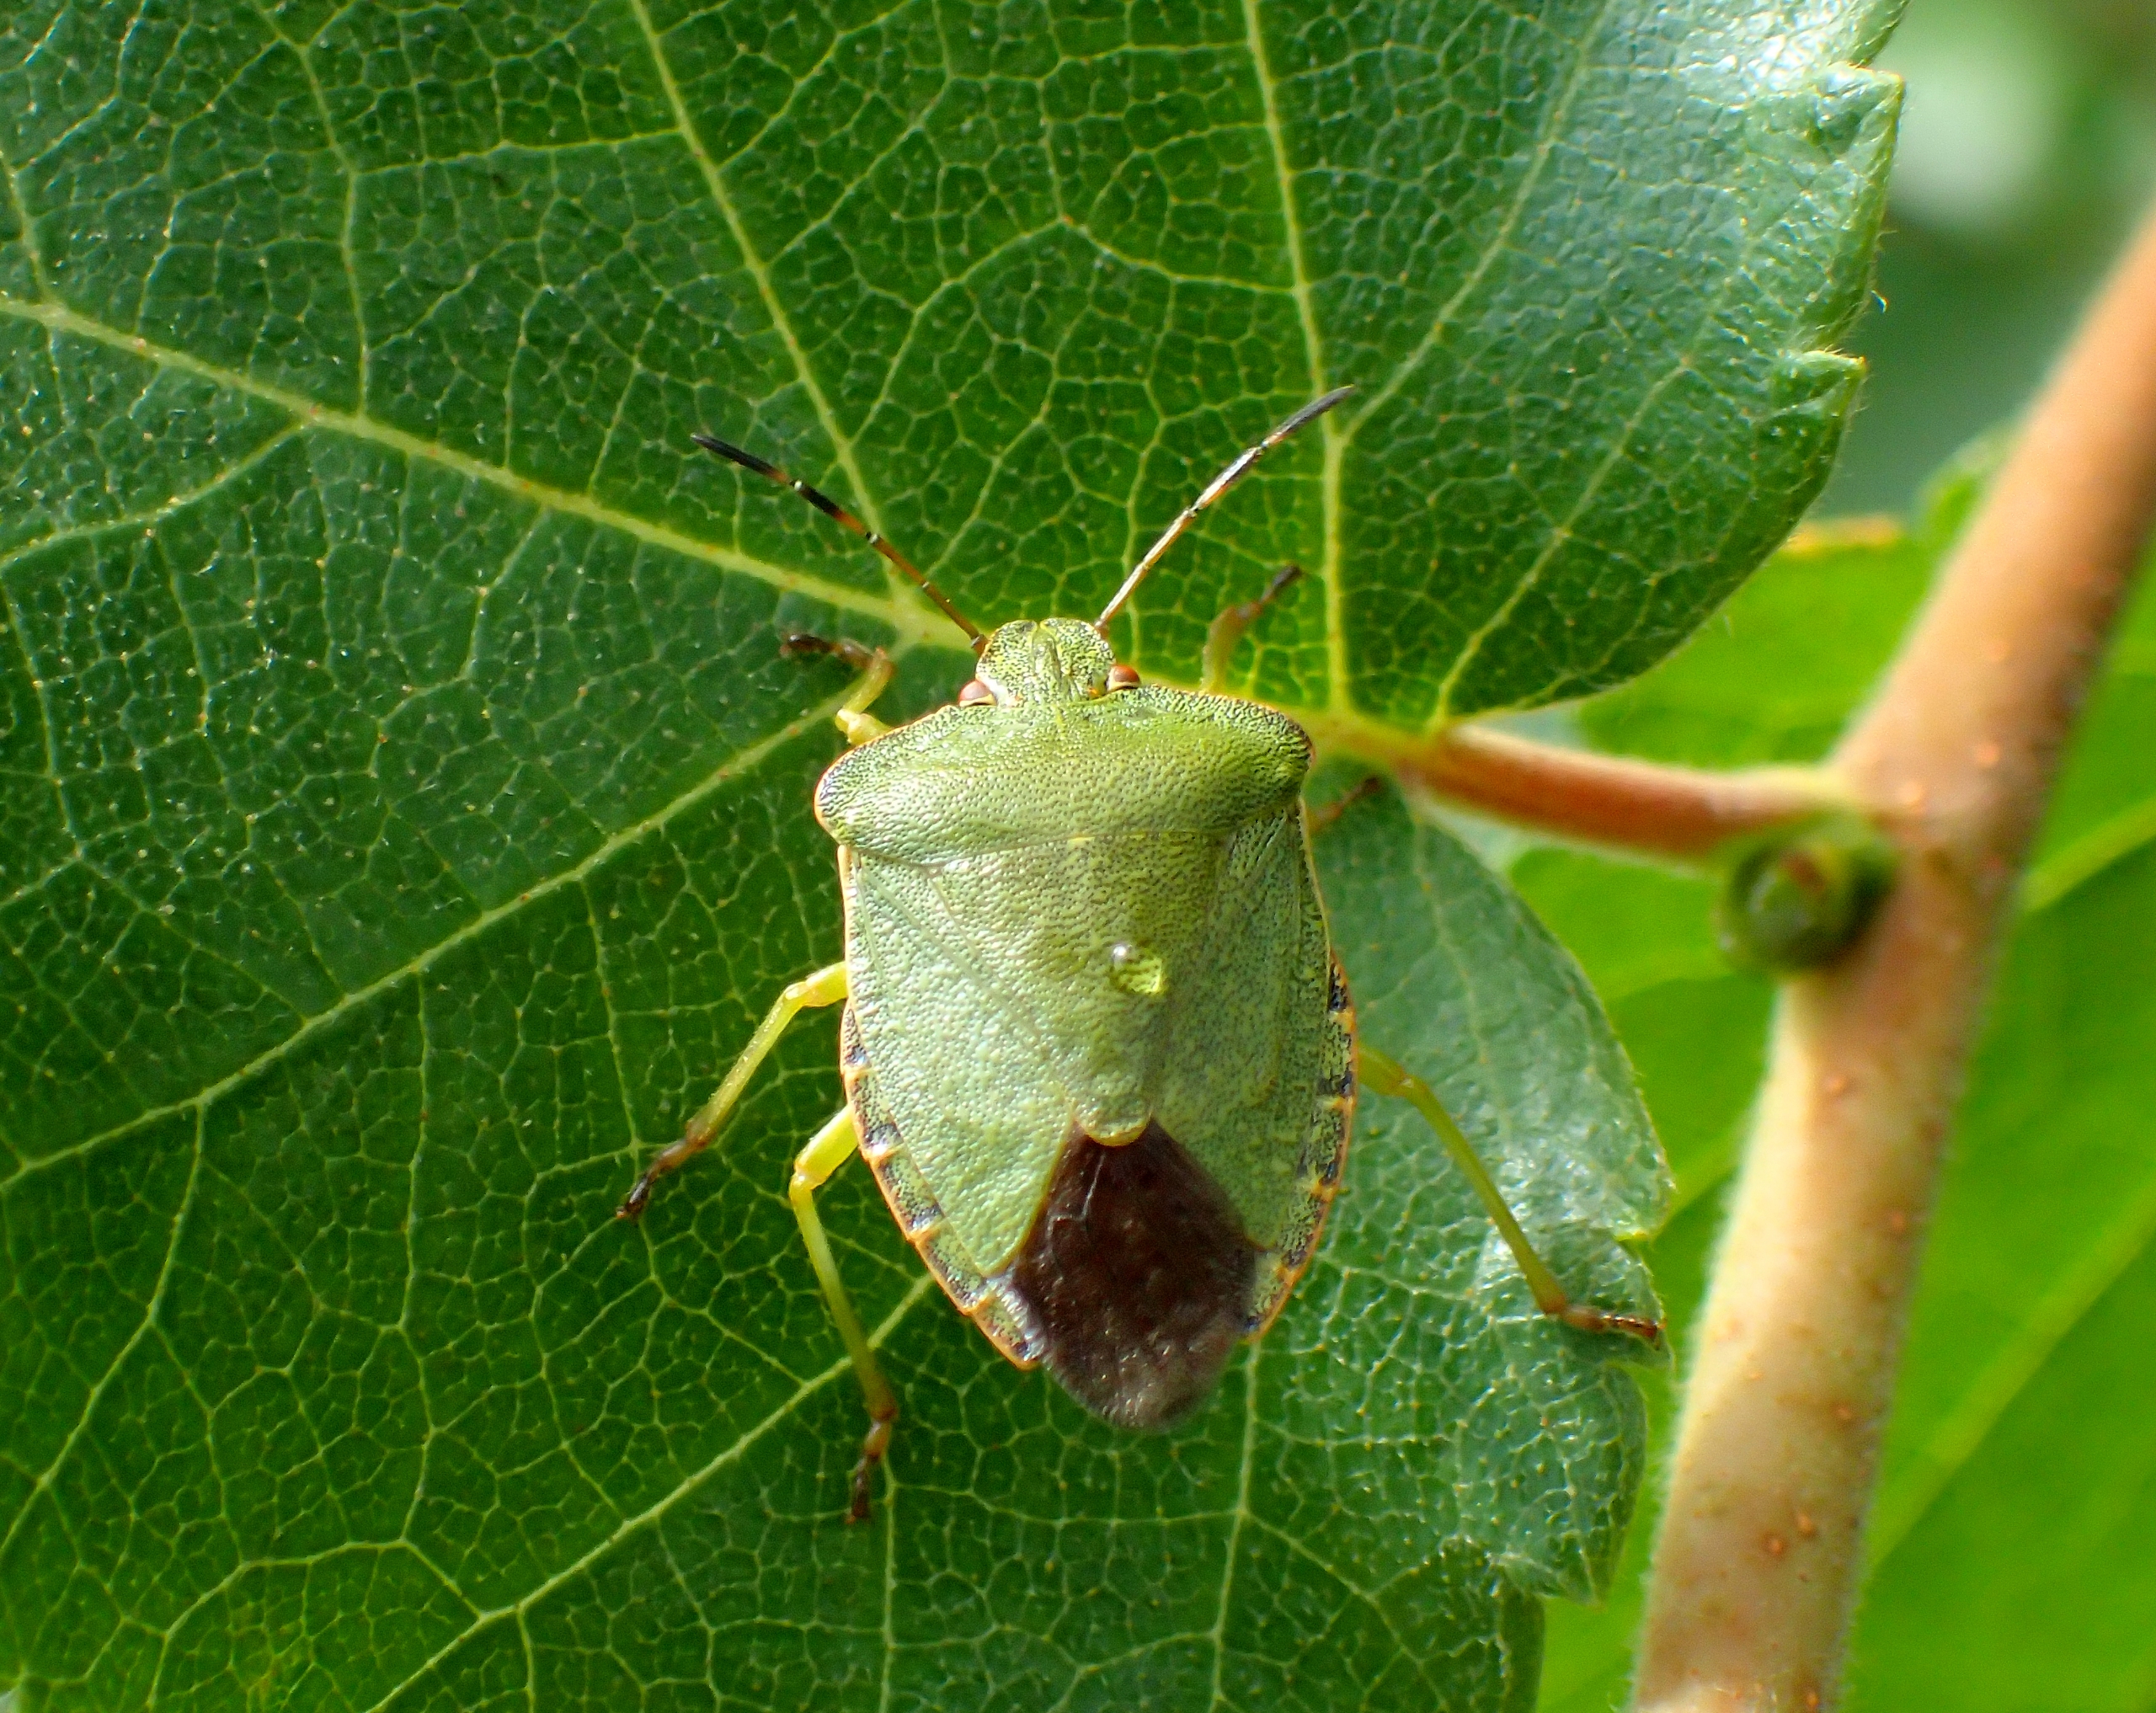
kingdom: Animalia
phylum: Arthropoda
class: Insecta
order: Hemiptera
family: Pentatomidae
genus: Palomena
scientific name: Palomena prasina
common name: Grøn bredtæge
